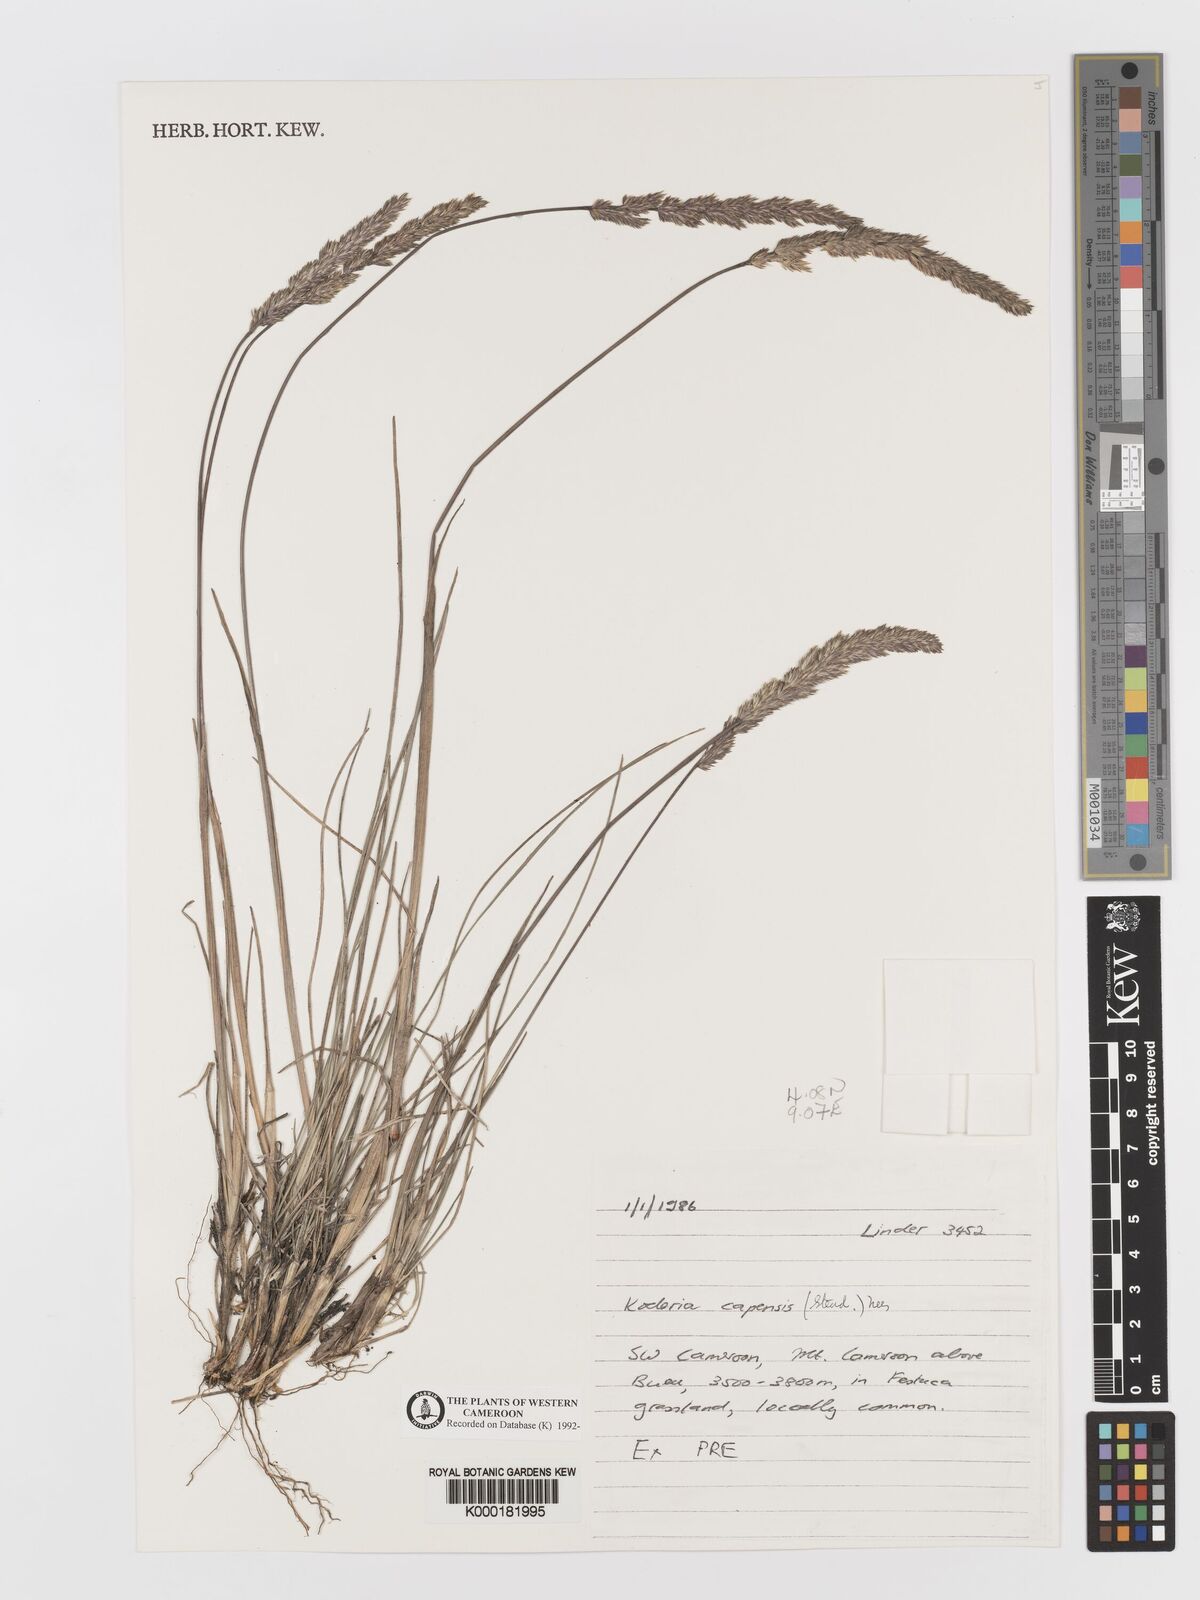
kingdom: Plantae
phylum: Tracheophyta
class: Liliopsida
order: Poales
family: Poaceae
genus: Koeleria
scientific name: Koeleria capensis
